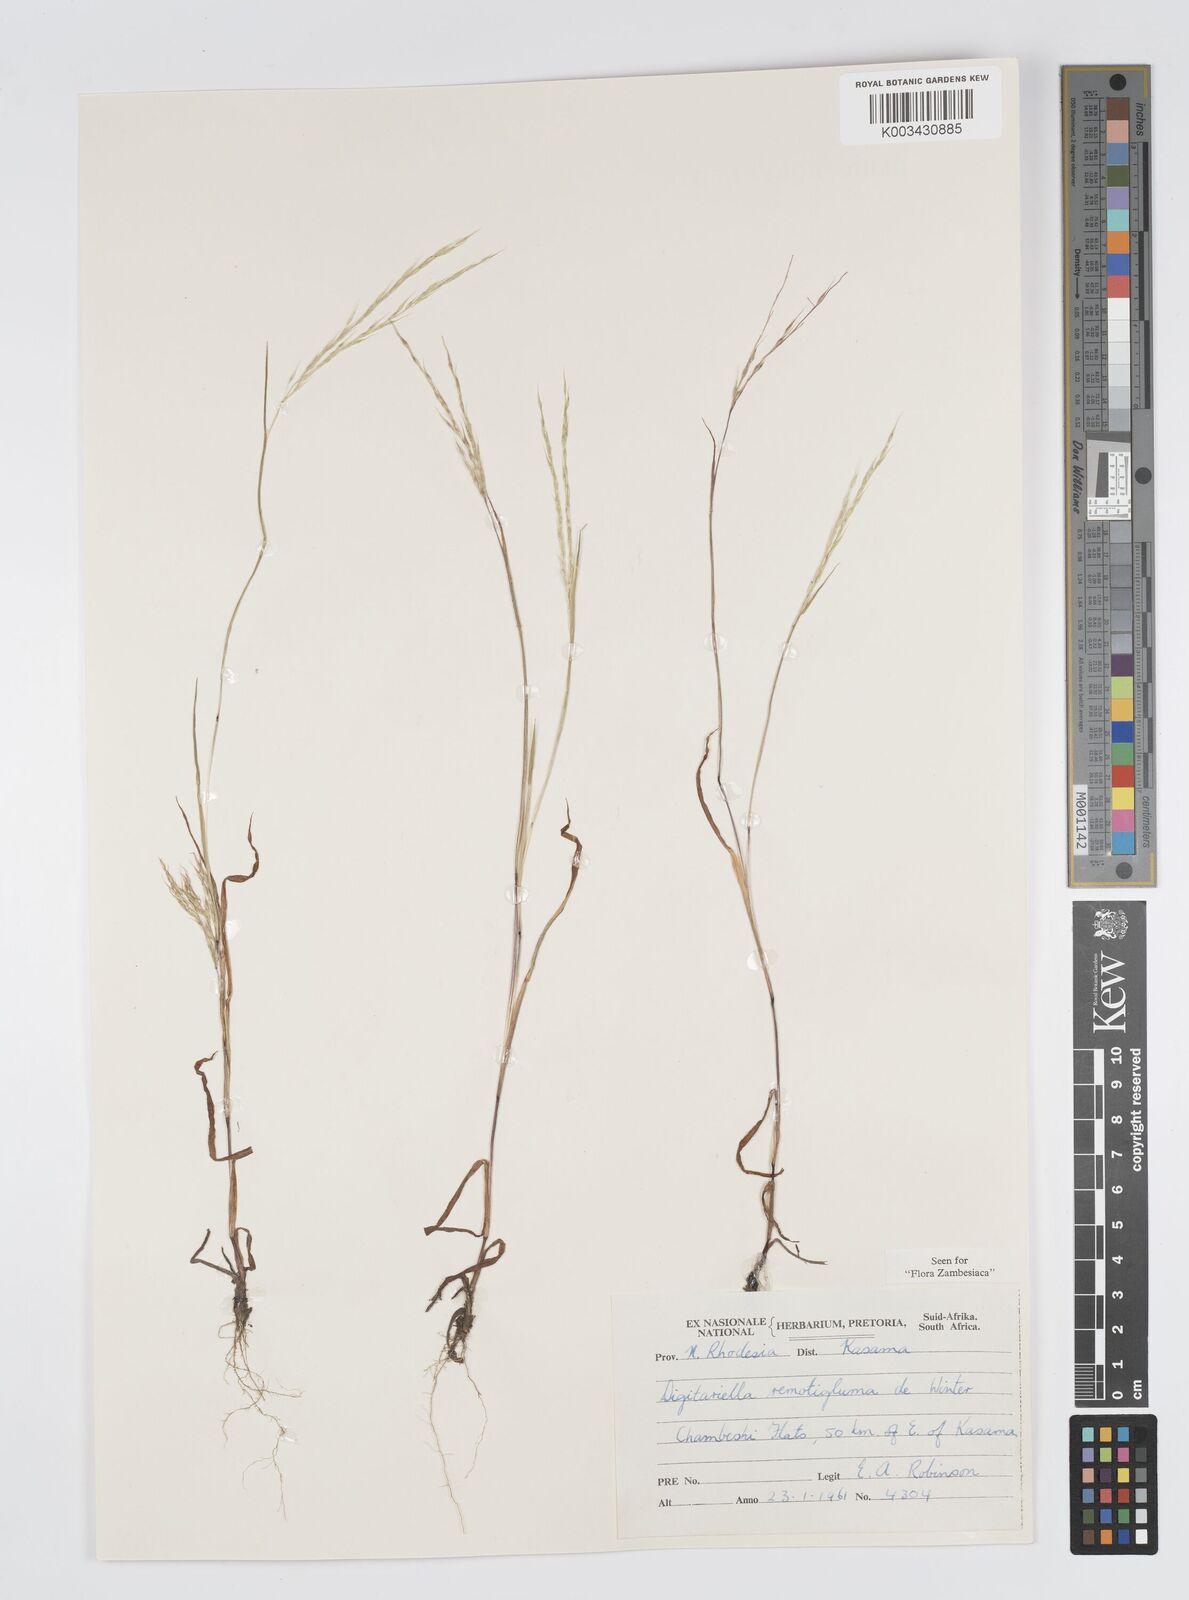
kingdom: Plantae
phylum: Tracheophyta
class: Liliopsida
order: Poales
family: Poaceae
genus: Digitaria
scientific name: Digitaria remotigluma
